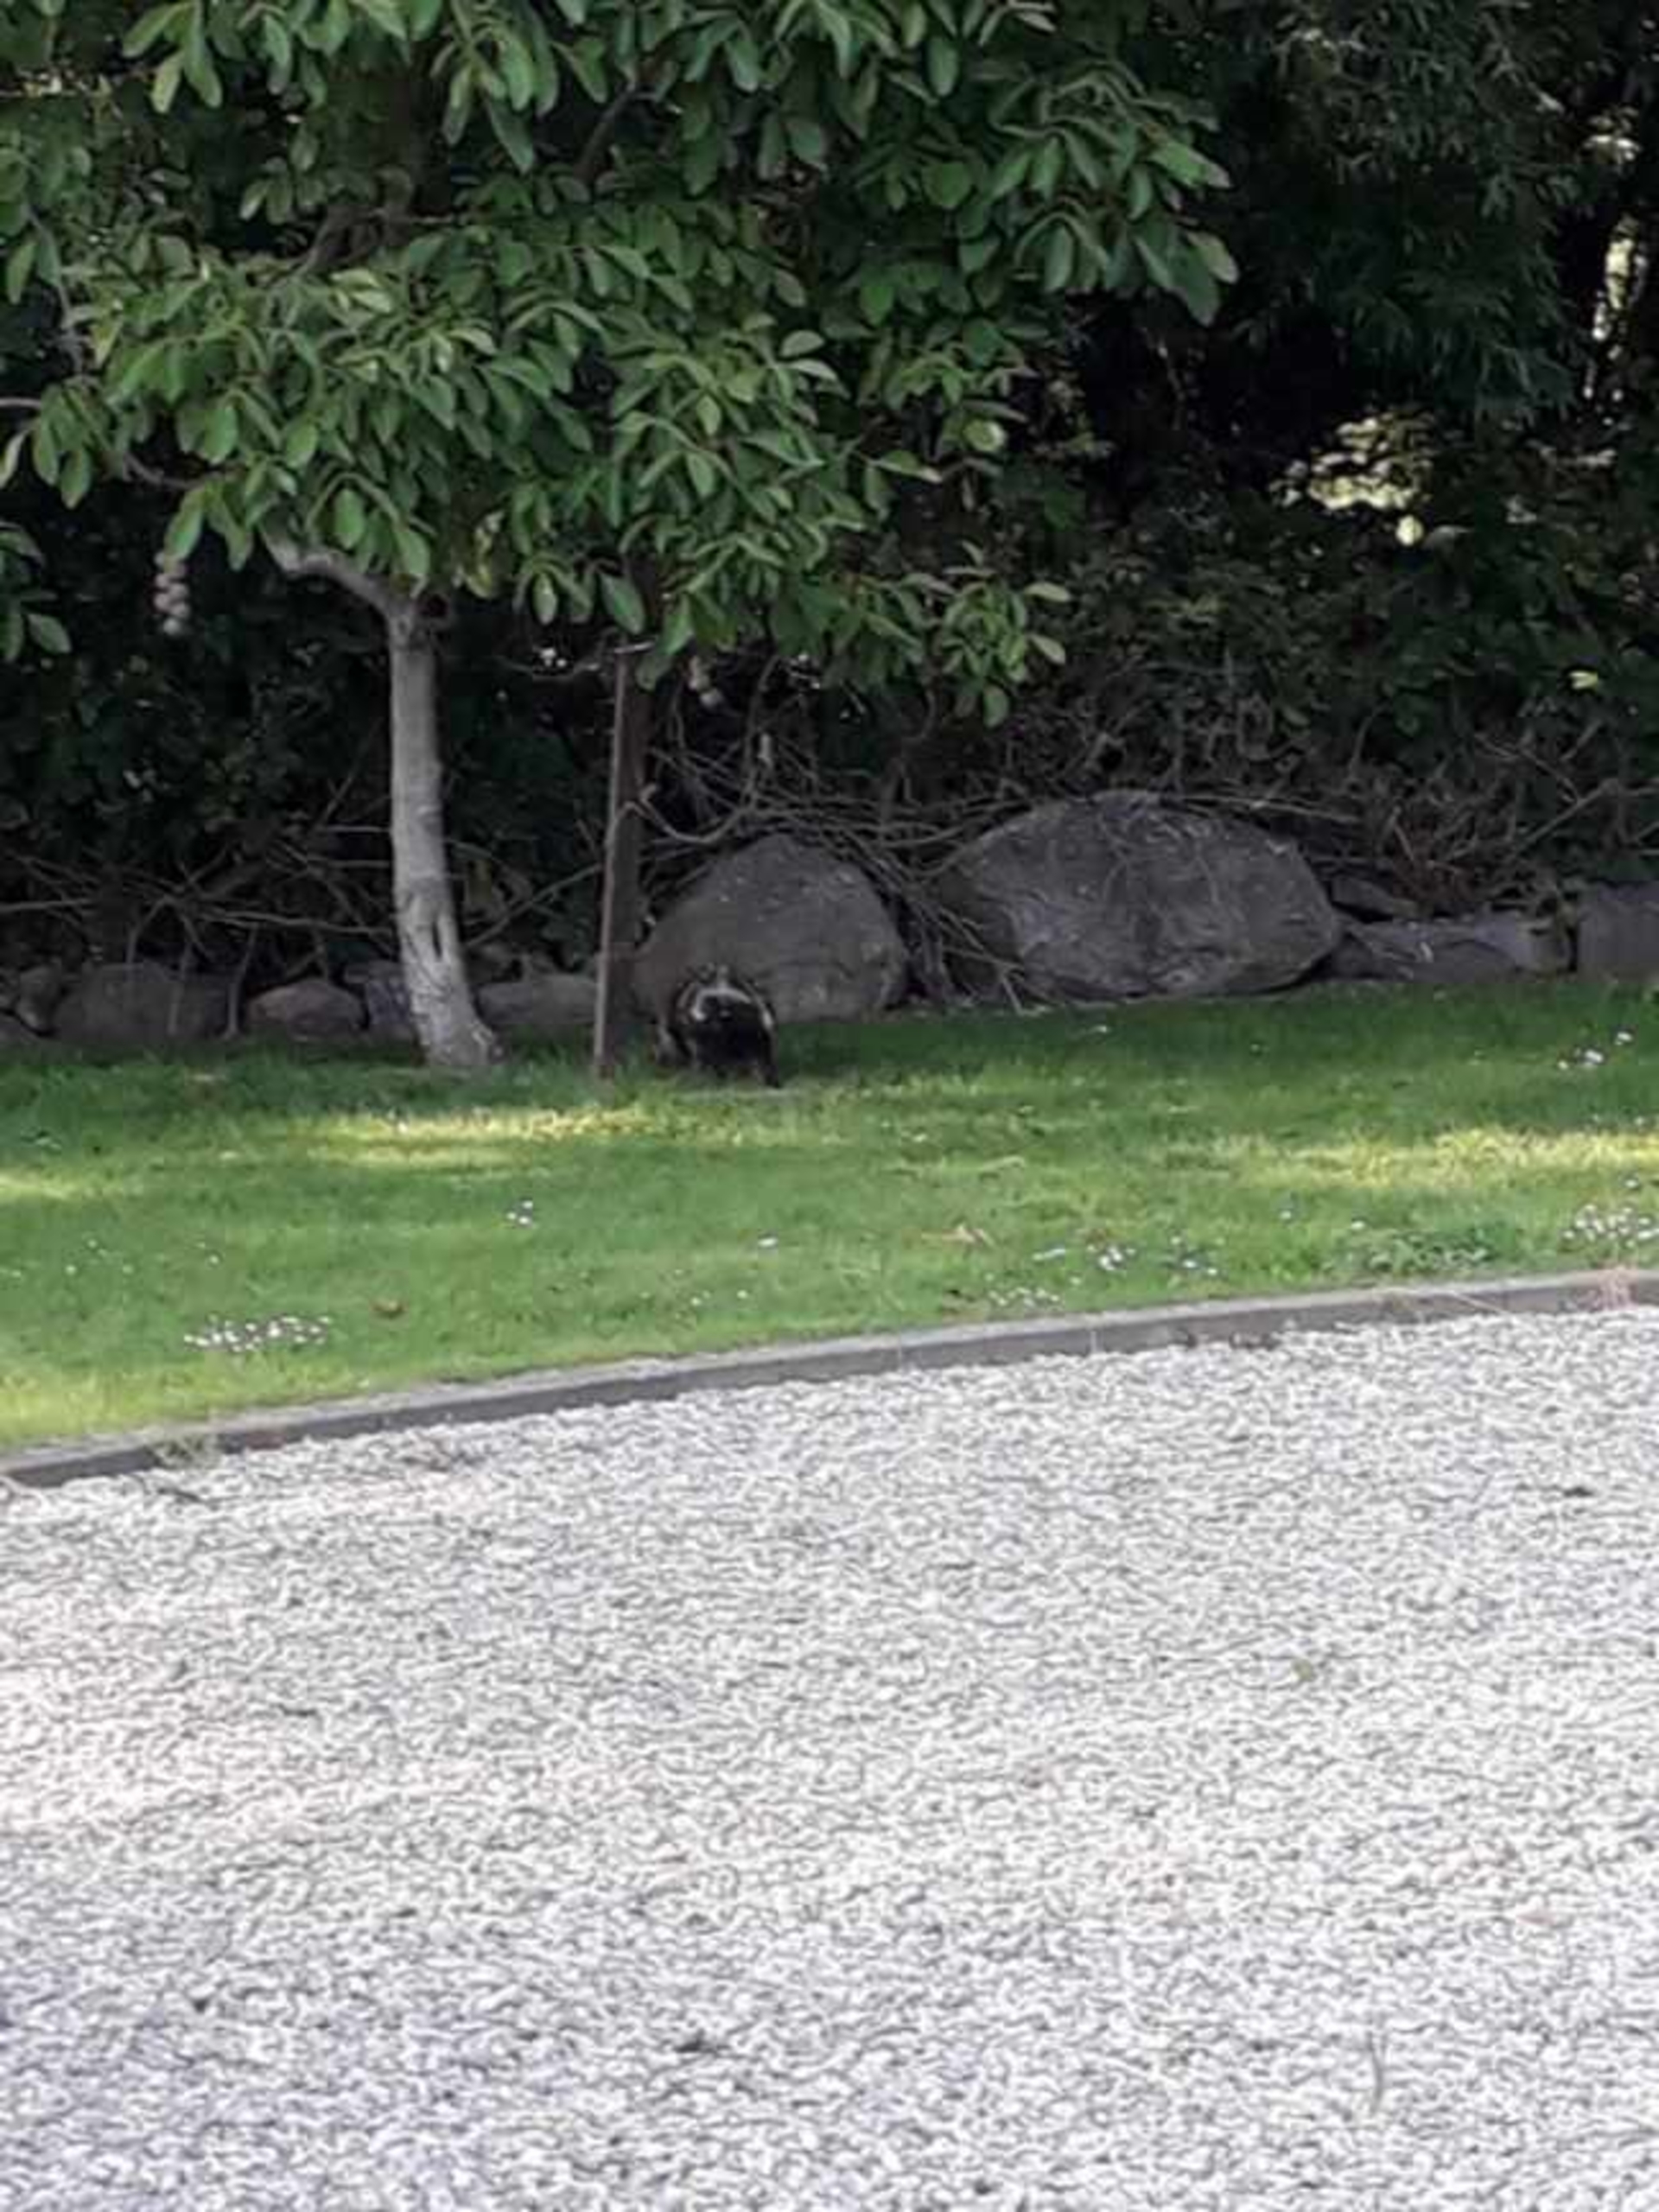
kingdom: Animalia
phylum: Chordata
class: Mammalia
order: Carnivora
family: Canidae
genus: Nyctereutes
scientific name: Nyctereutes procyonoides
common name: Mårhund
